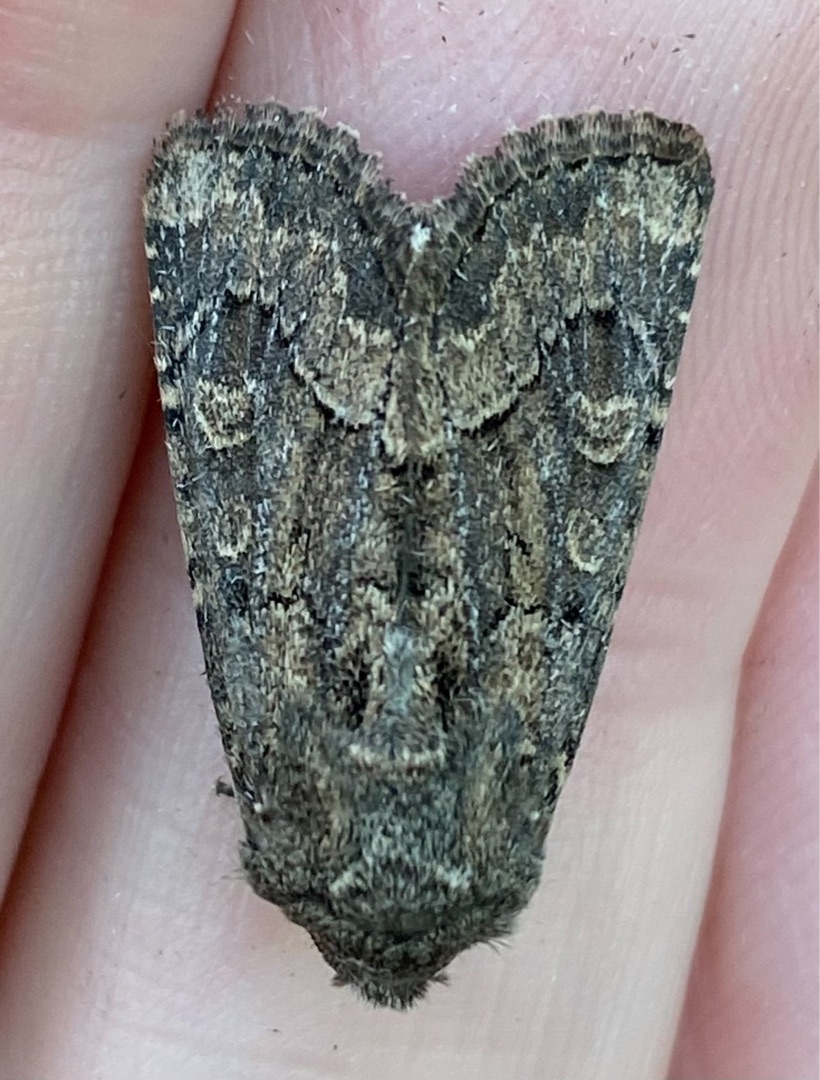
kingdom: Animalia
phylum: Arthropoda
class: Insecta
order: Lepidoptera
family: Noctuidae
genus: Luperina
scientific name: Luperina testacea
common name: Frøgræsugle
